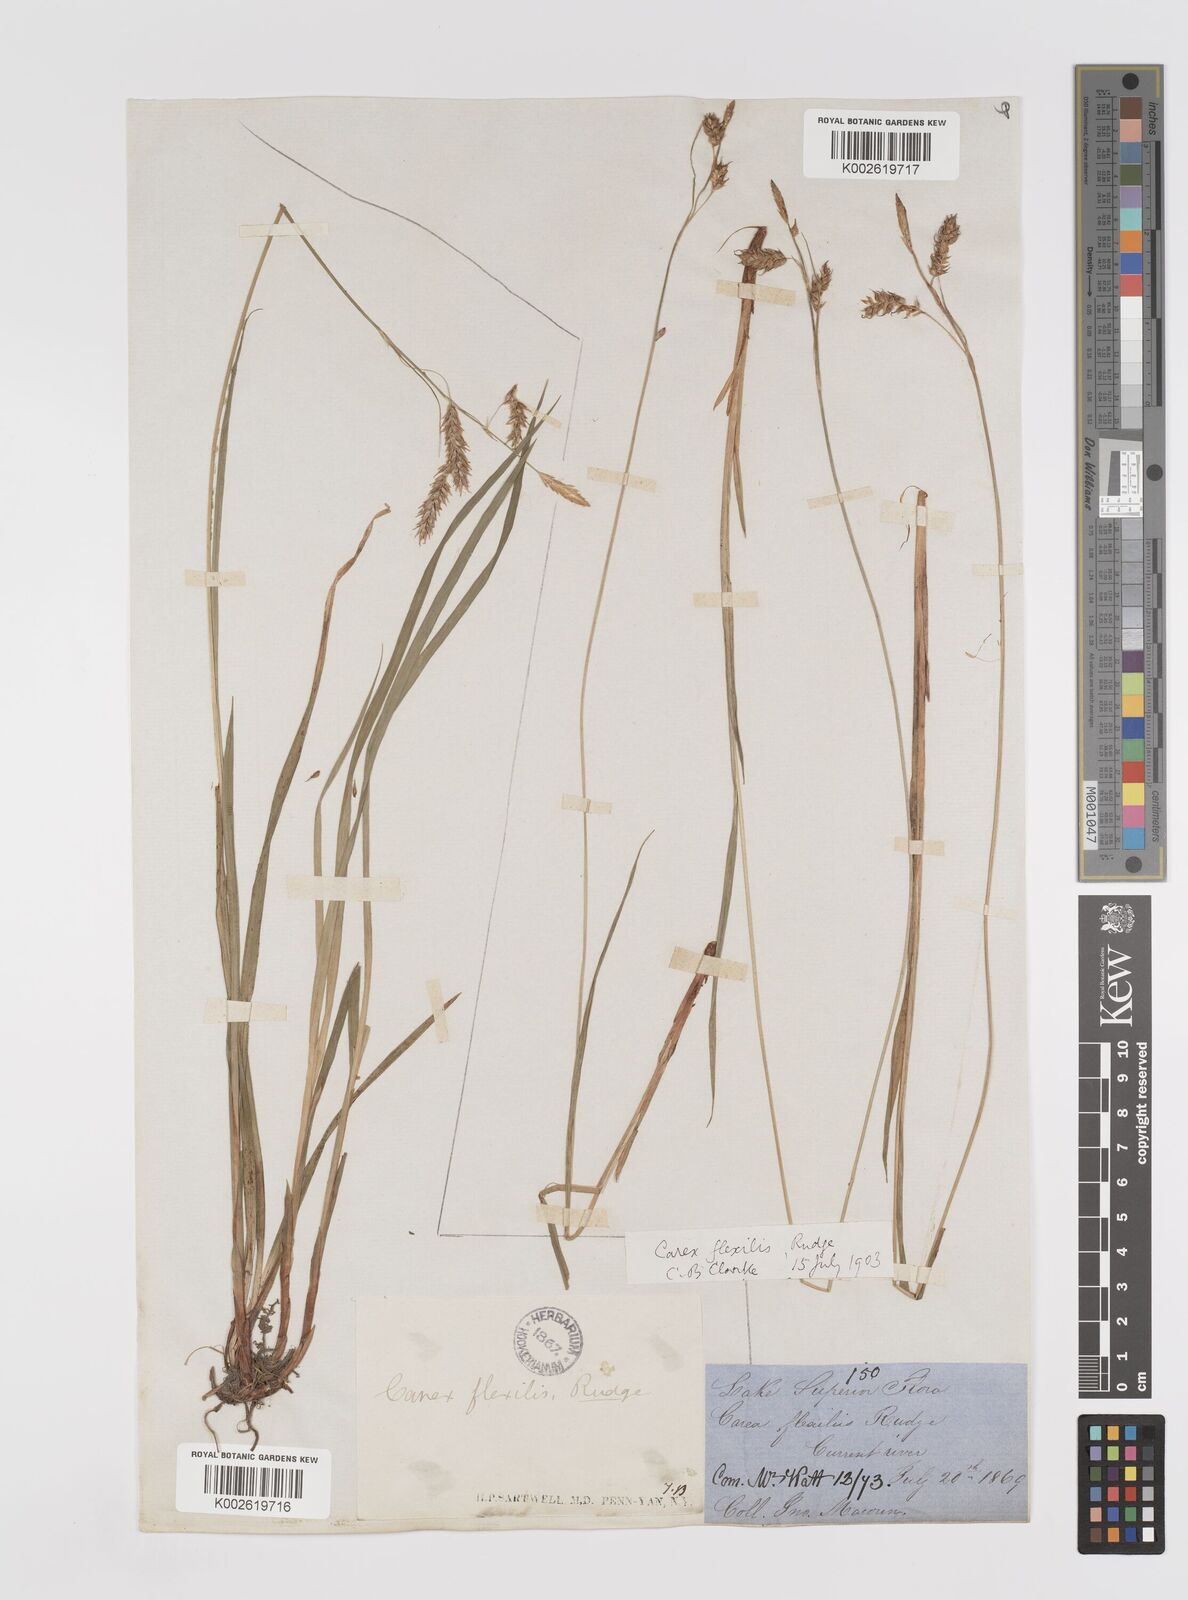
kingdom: Plantae
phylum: Tracheophyta
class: Liliopsida
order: Poales
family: Cyperaceae
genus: Carex
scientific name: Carex castanea
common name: Chestnut sedge
